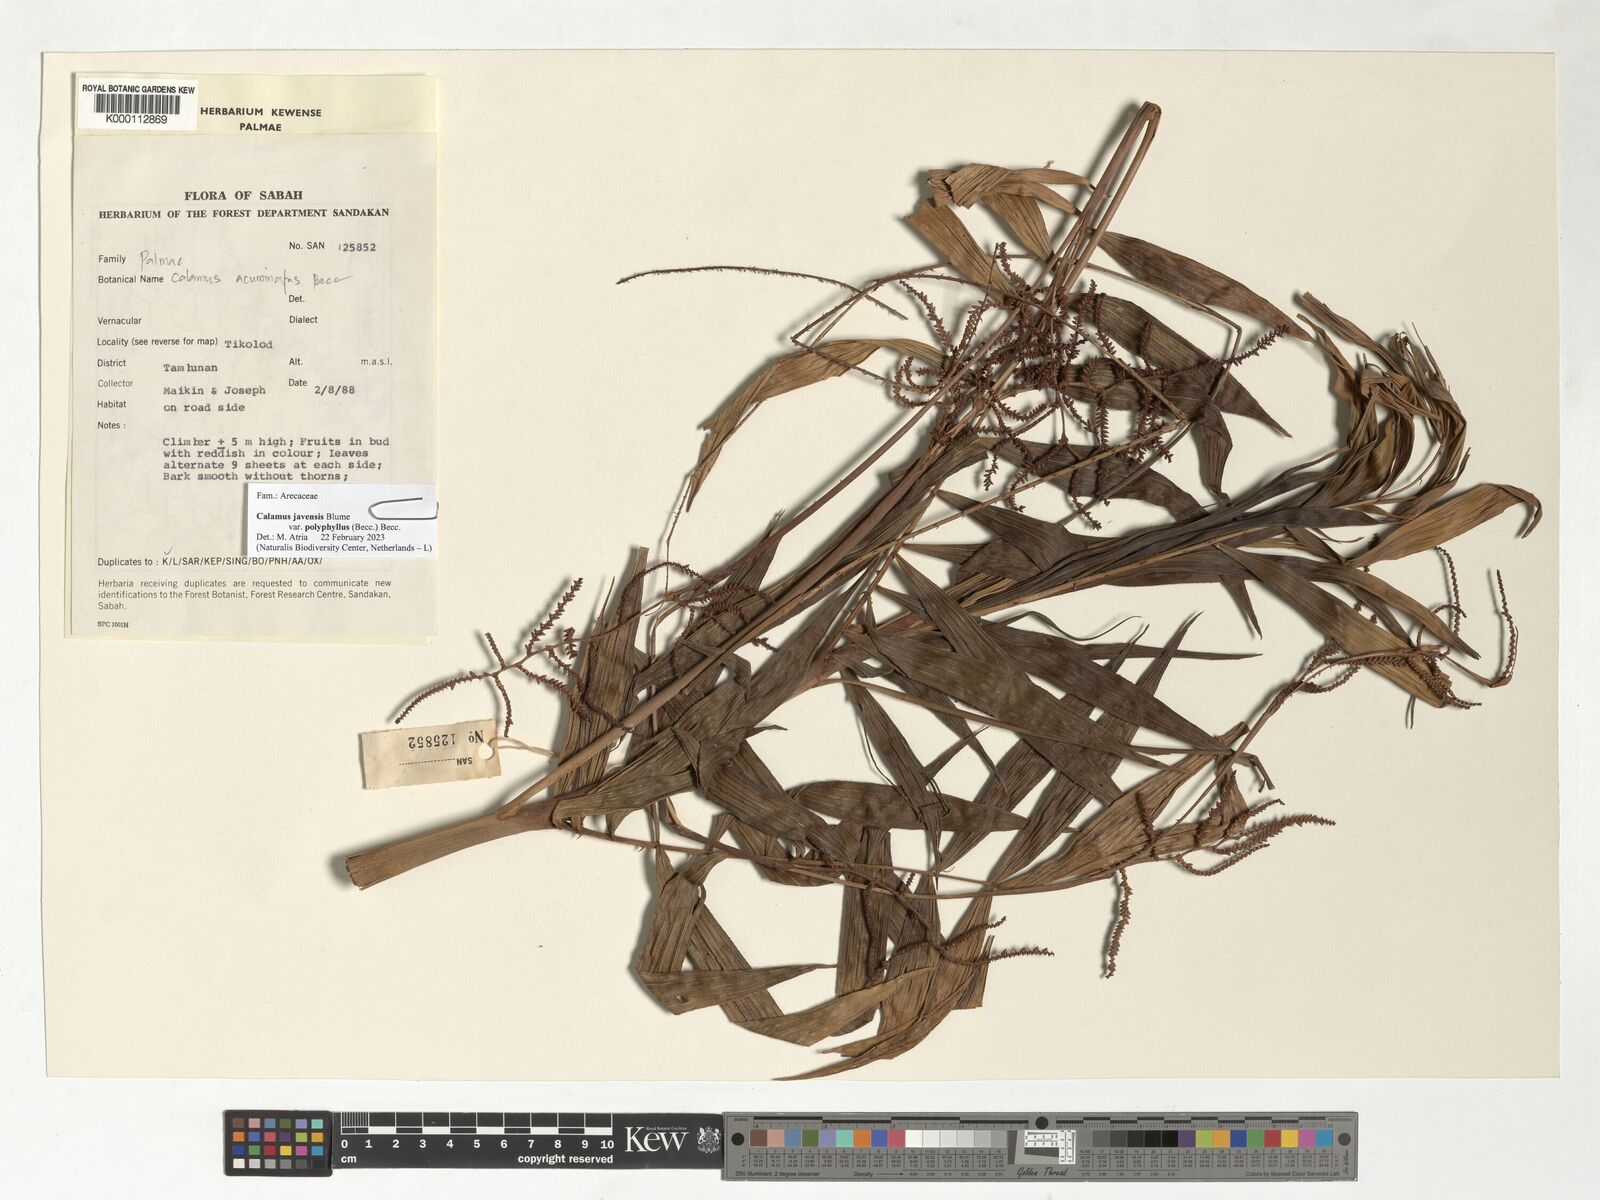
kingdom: Plantae
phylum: Tracheophyta
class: Liliopsida
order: Arecales
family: Arecaceae
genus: Calamus
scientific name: Calamus javensis
